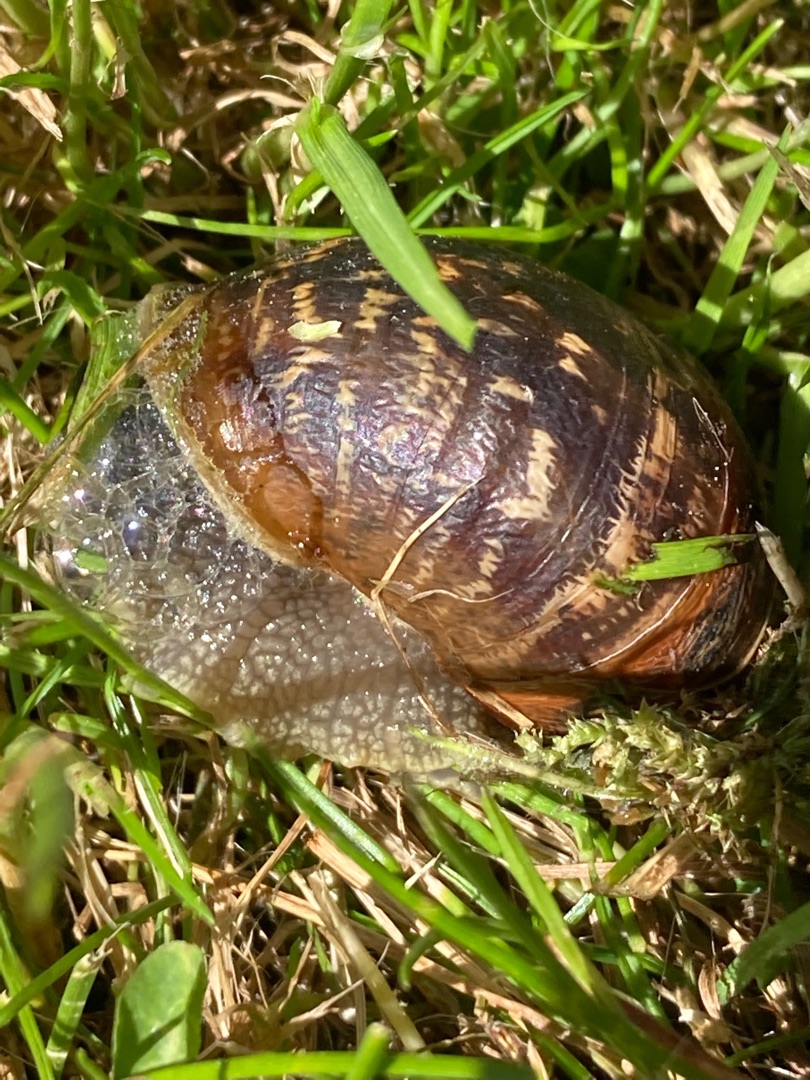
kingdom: Animalia
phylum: Mollusca
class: Gastropoda
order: Stylommatophora
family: Helicidae
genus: Cornu
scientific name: Cornu aspersum
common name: Plettet voldsnegl
